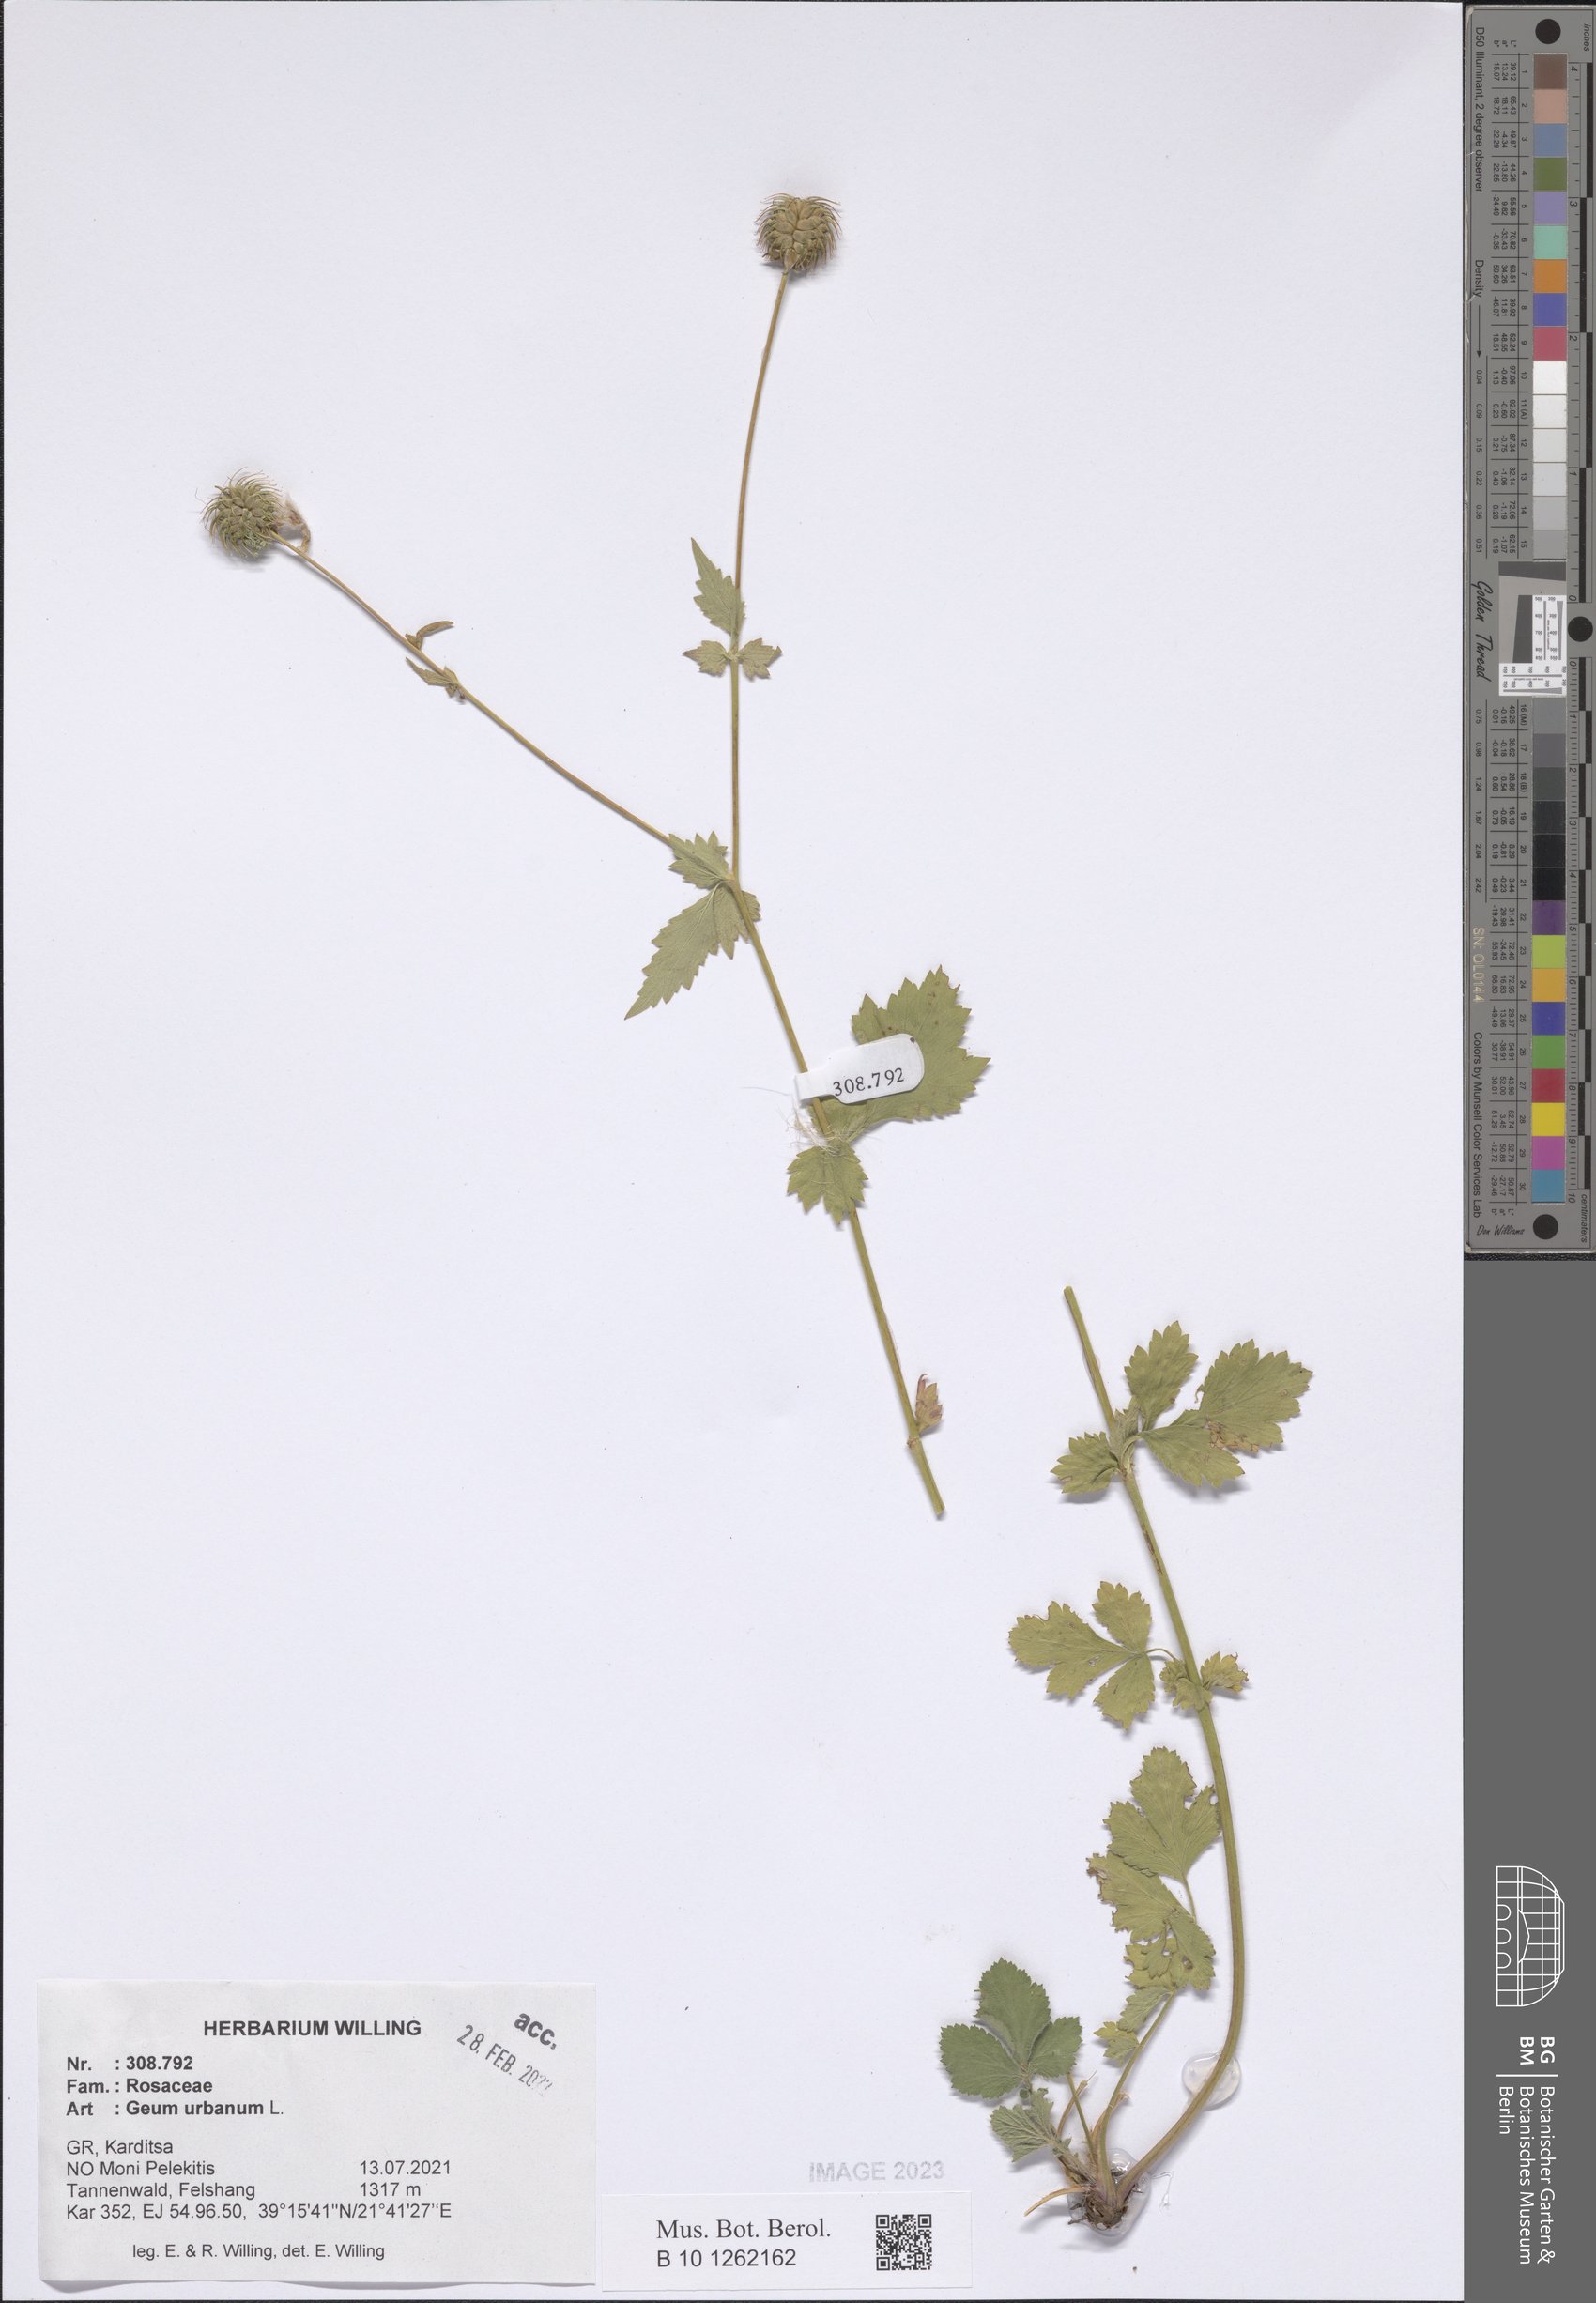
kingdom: Plantae
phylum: Tracheophyta
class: Magnoliopsida
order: Rosales
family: Rosaceae
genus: Geum
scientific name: Geum urbanum
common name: Wood avens
